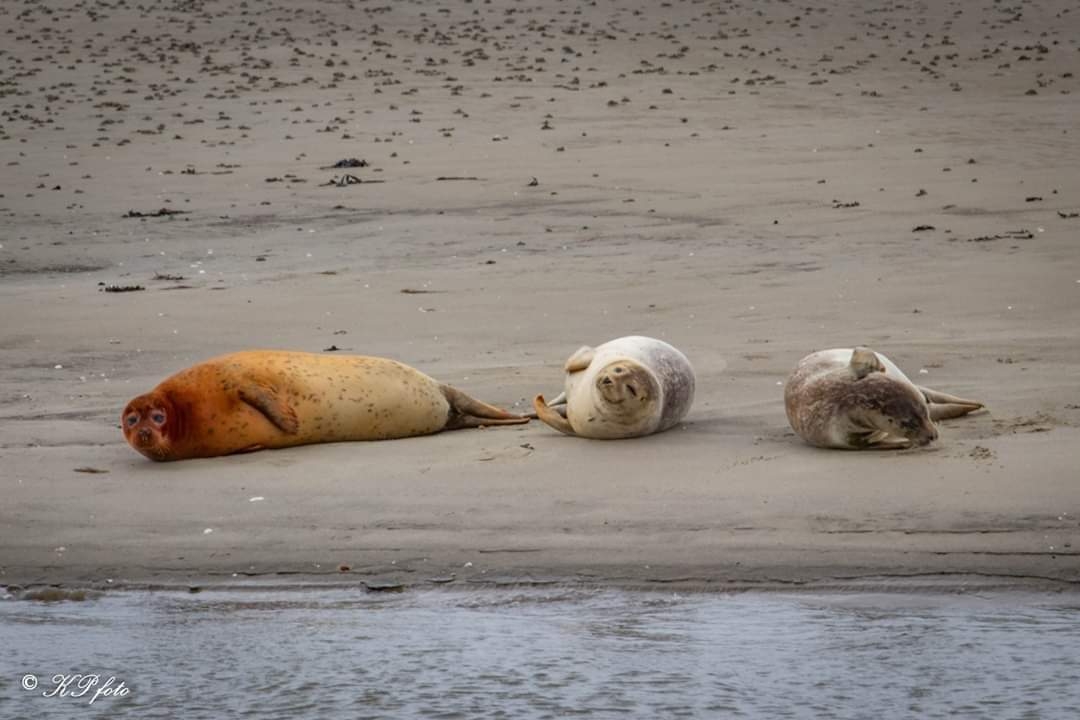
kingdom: Animalia
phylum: Chordata
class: Mammalia
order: Carnivora
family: Phocidae
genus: Phoca
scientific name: Phoca vitulina
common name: Spættet sæl
